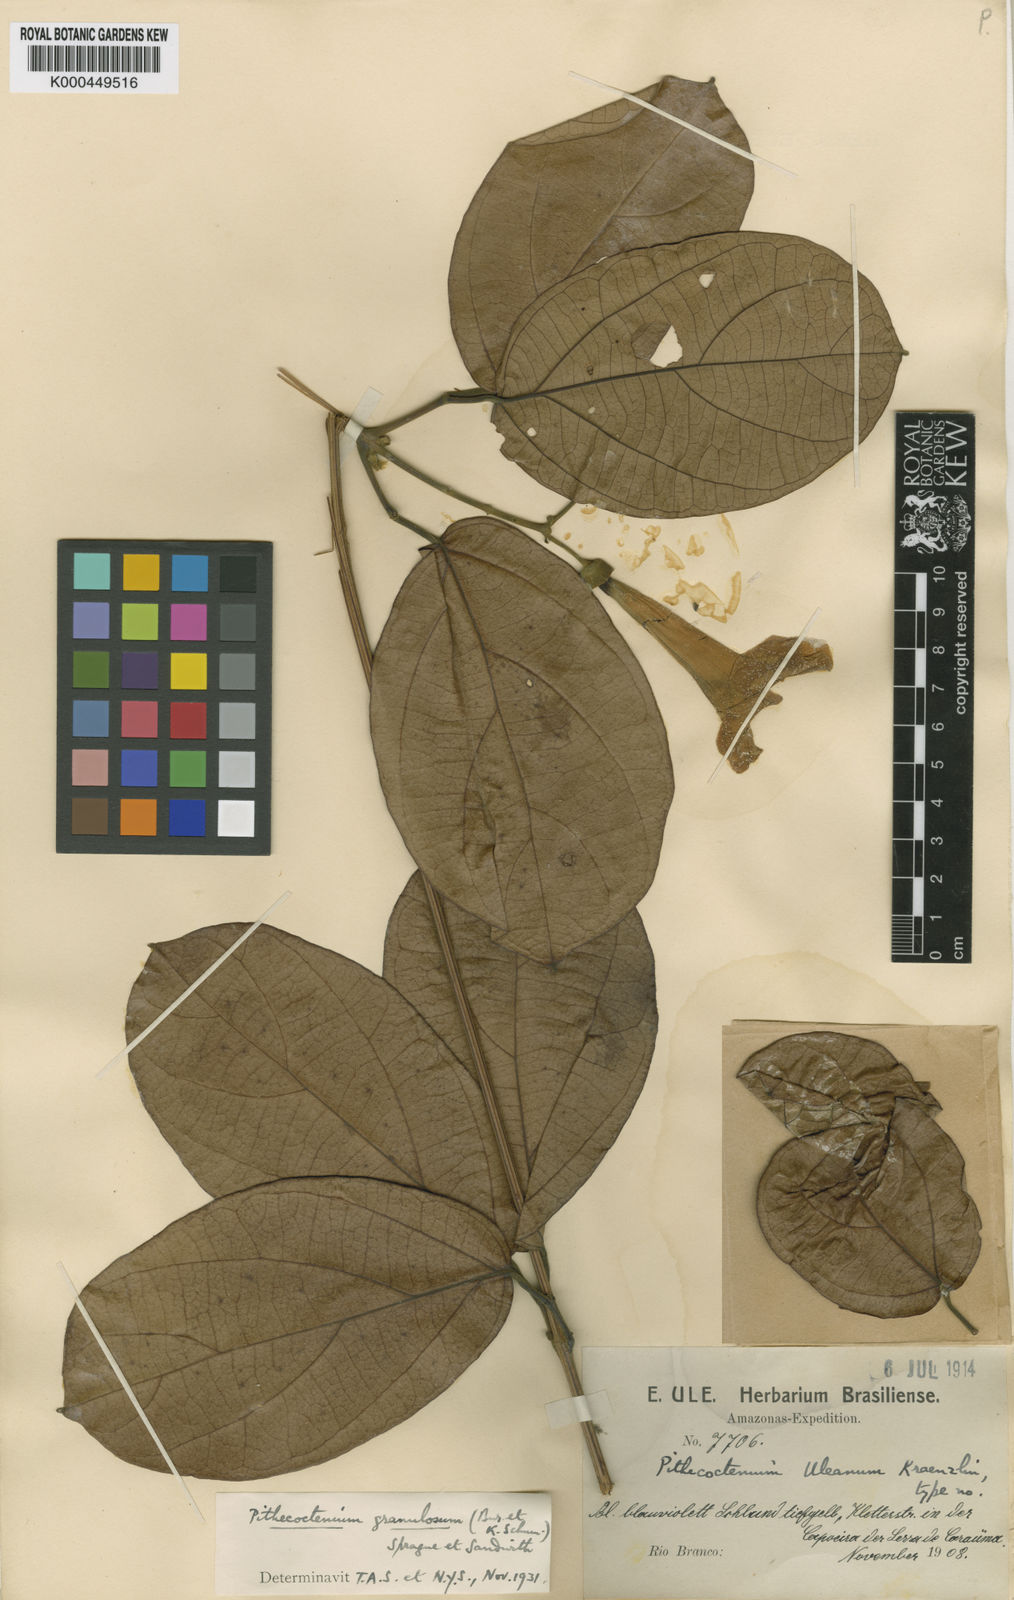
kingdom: Plantae
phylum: Tracheophyta
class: Magnoliopsida
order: Lamiales
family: Bignoniaceae
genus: Pithecoctenium
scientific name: Pithecoctenium
